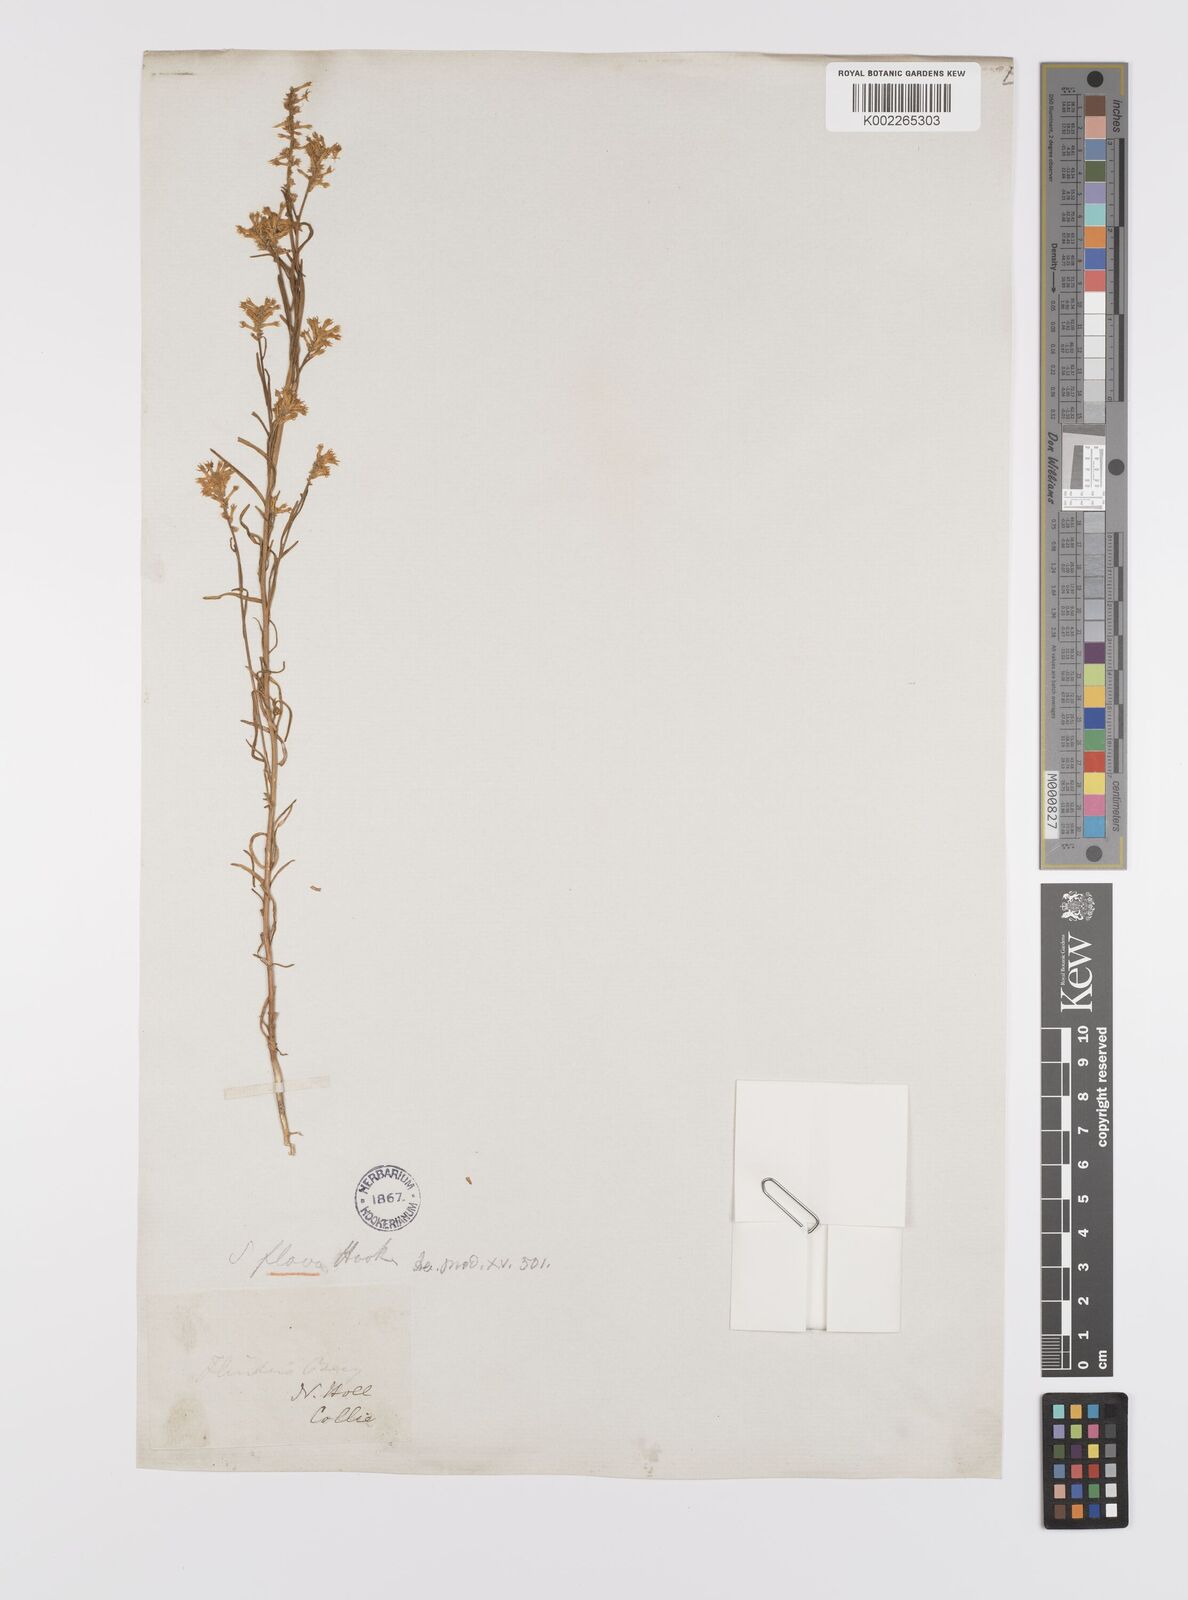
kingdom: Plantae
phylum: Tracheophyta
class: Magnoliopsida
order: Celastrales
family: Celastraceae
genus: Stackhousia
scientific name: Stackhousia viminea
